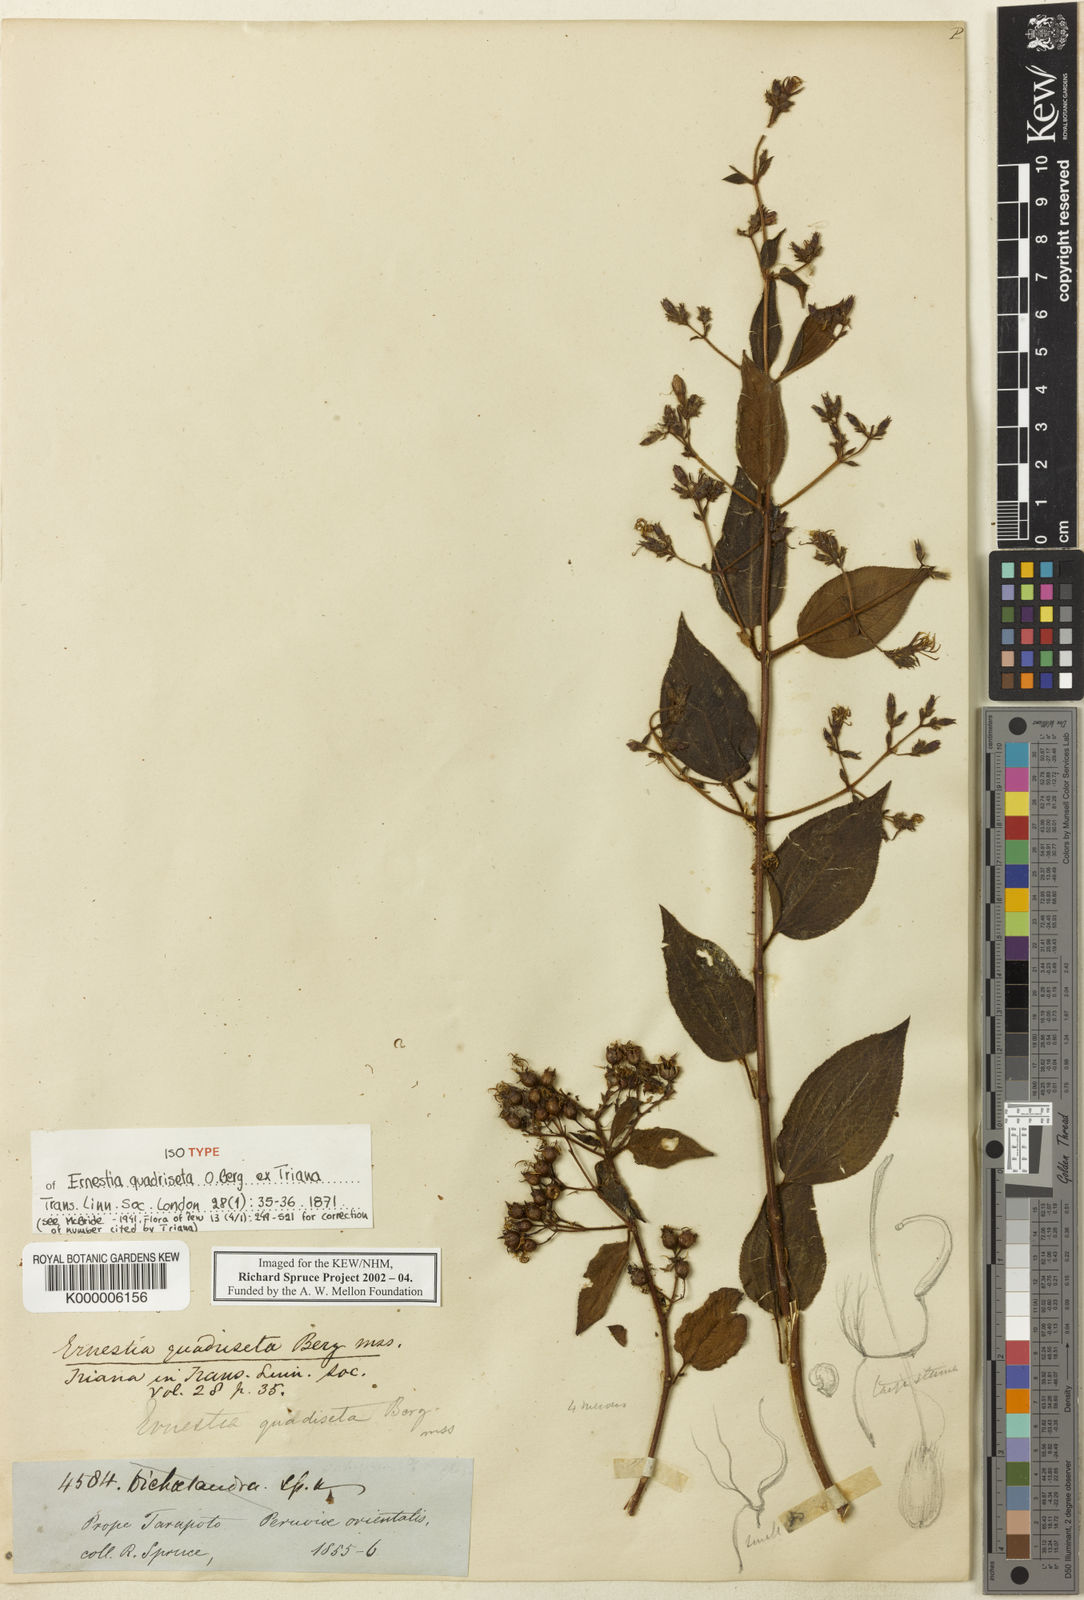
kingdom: Plantae
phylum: Tracheophyta
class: Magnoliopsida
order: Myrtales
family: Melastomataceae
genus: Ernestia
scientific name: Ernestia quadriseta
